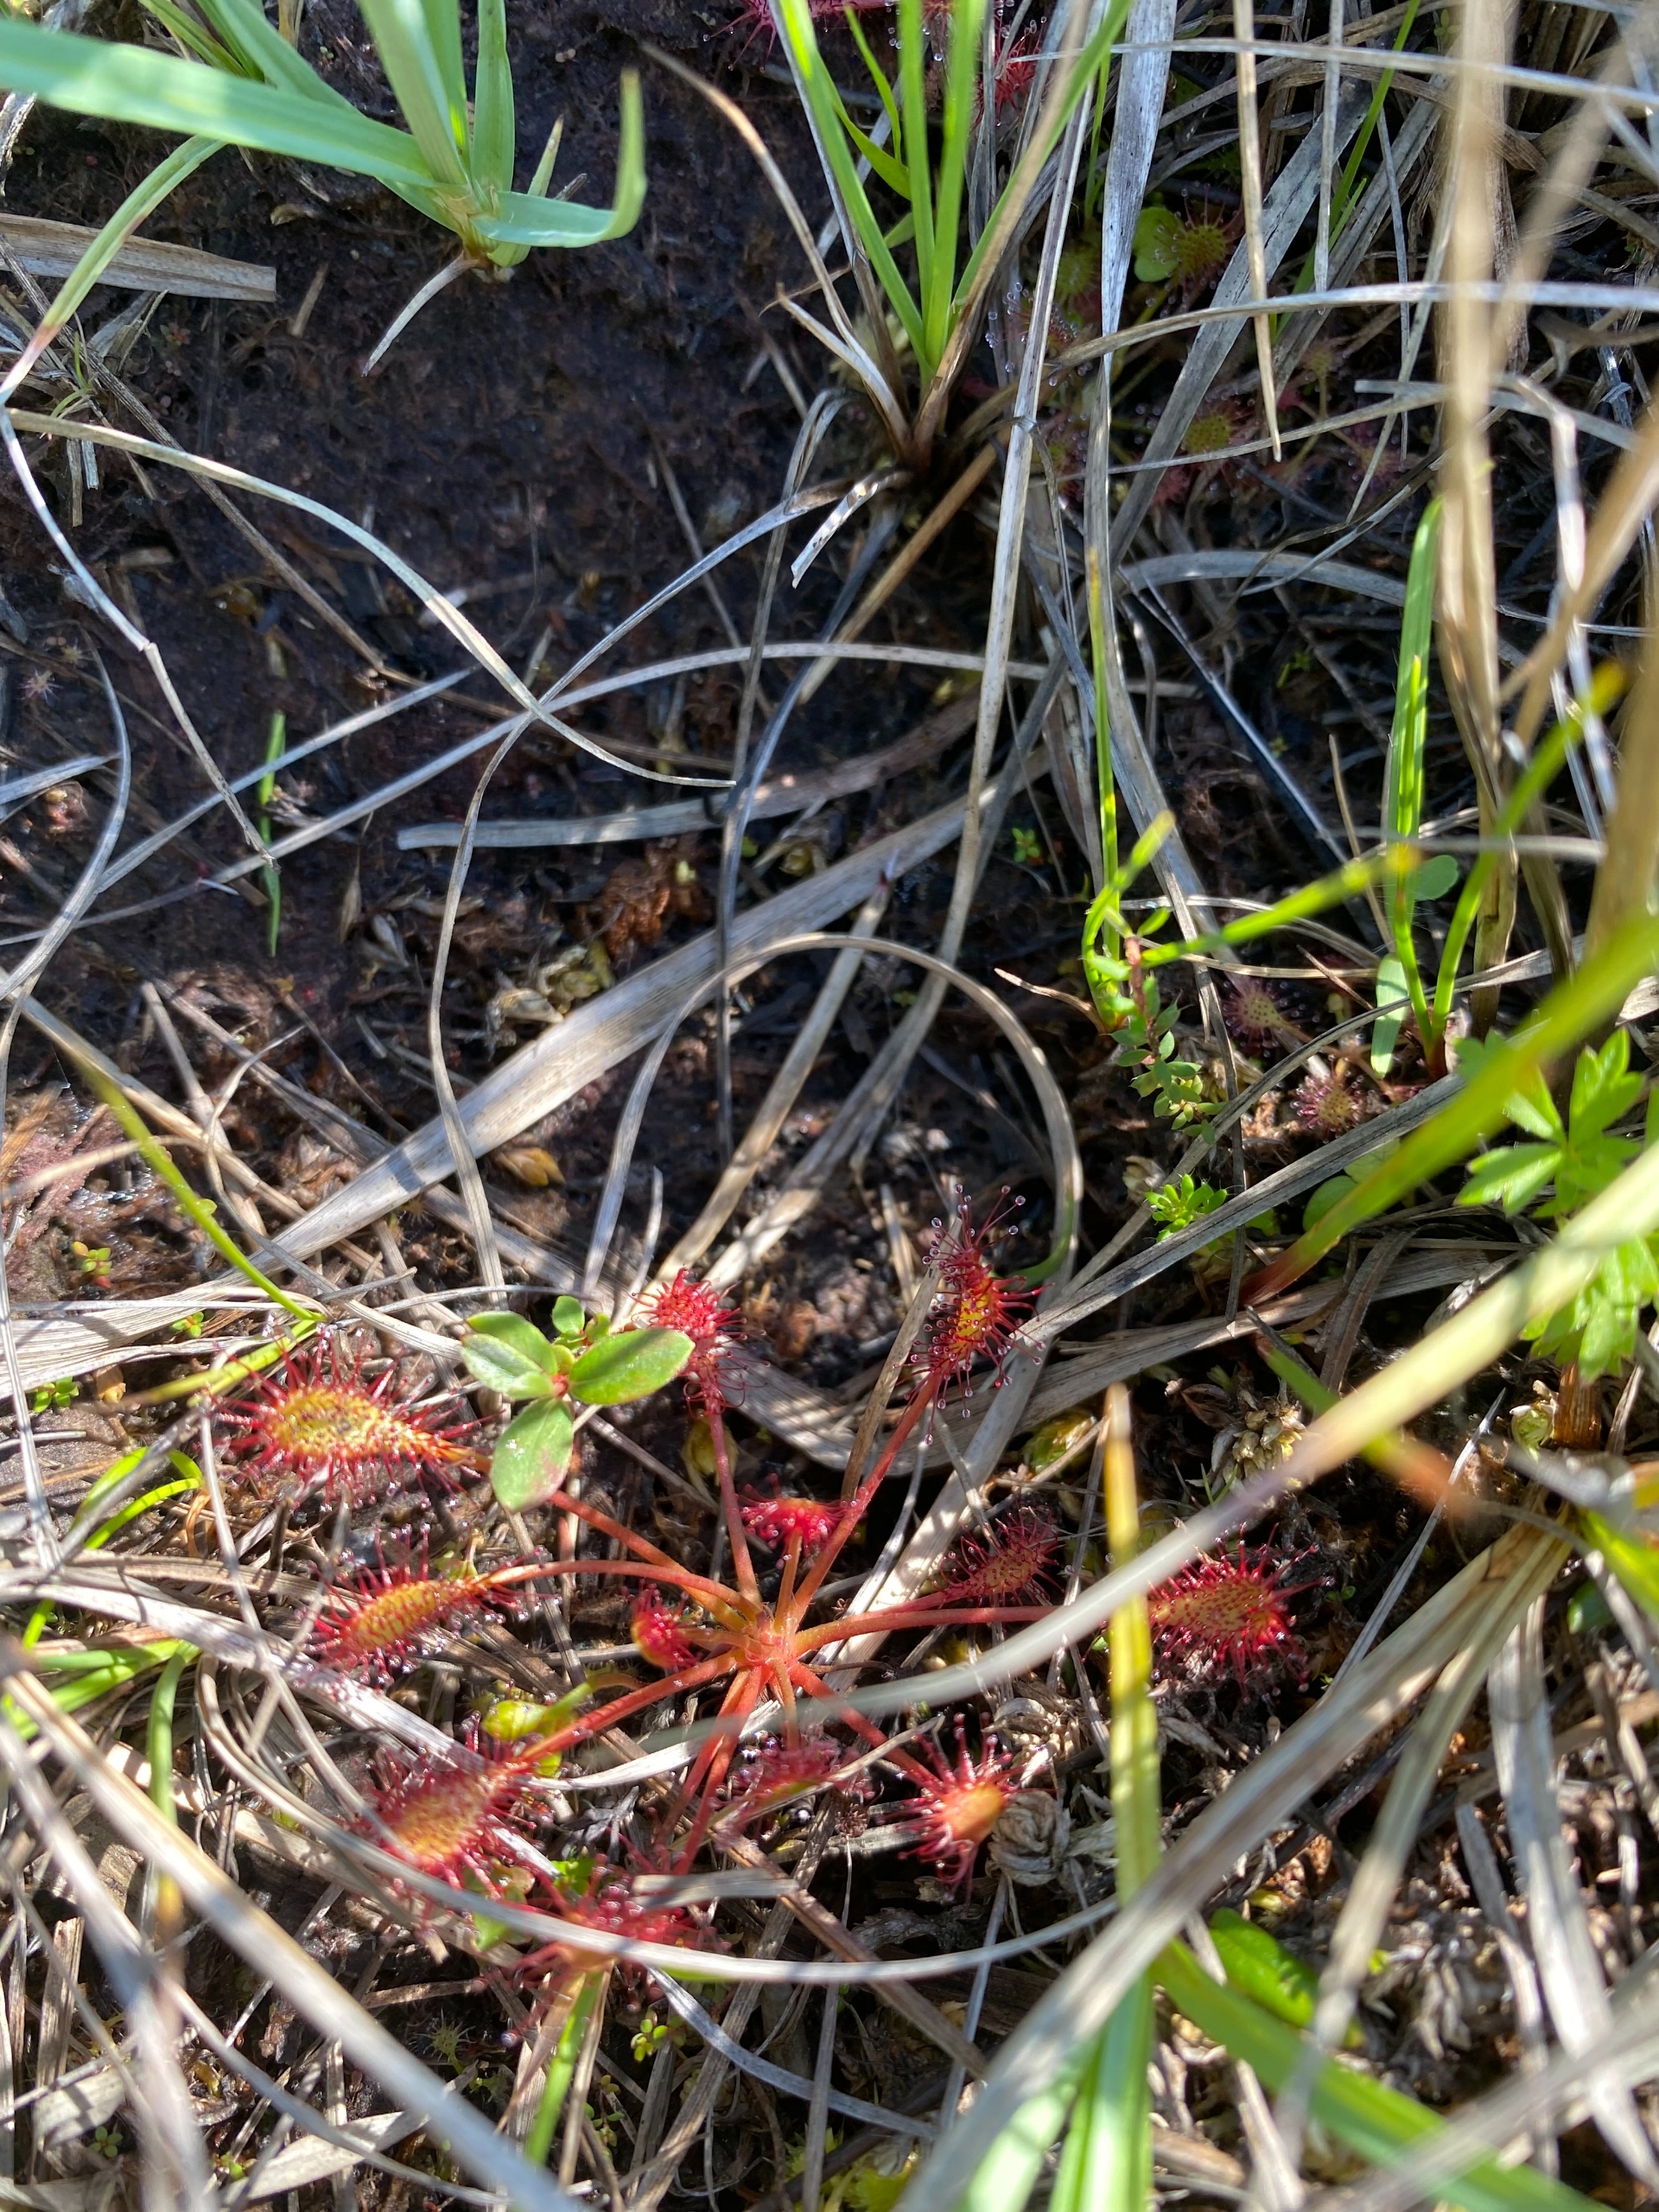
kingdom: Plantae
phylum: Tracheophyta
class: Magnoliopsida
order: Caryophyllales
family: Droseraceae
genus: Drosera
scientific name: Drosera intermedia
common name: Liden soldug
